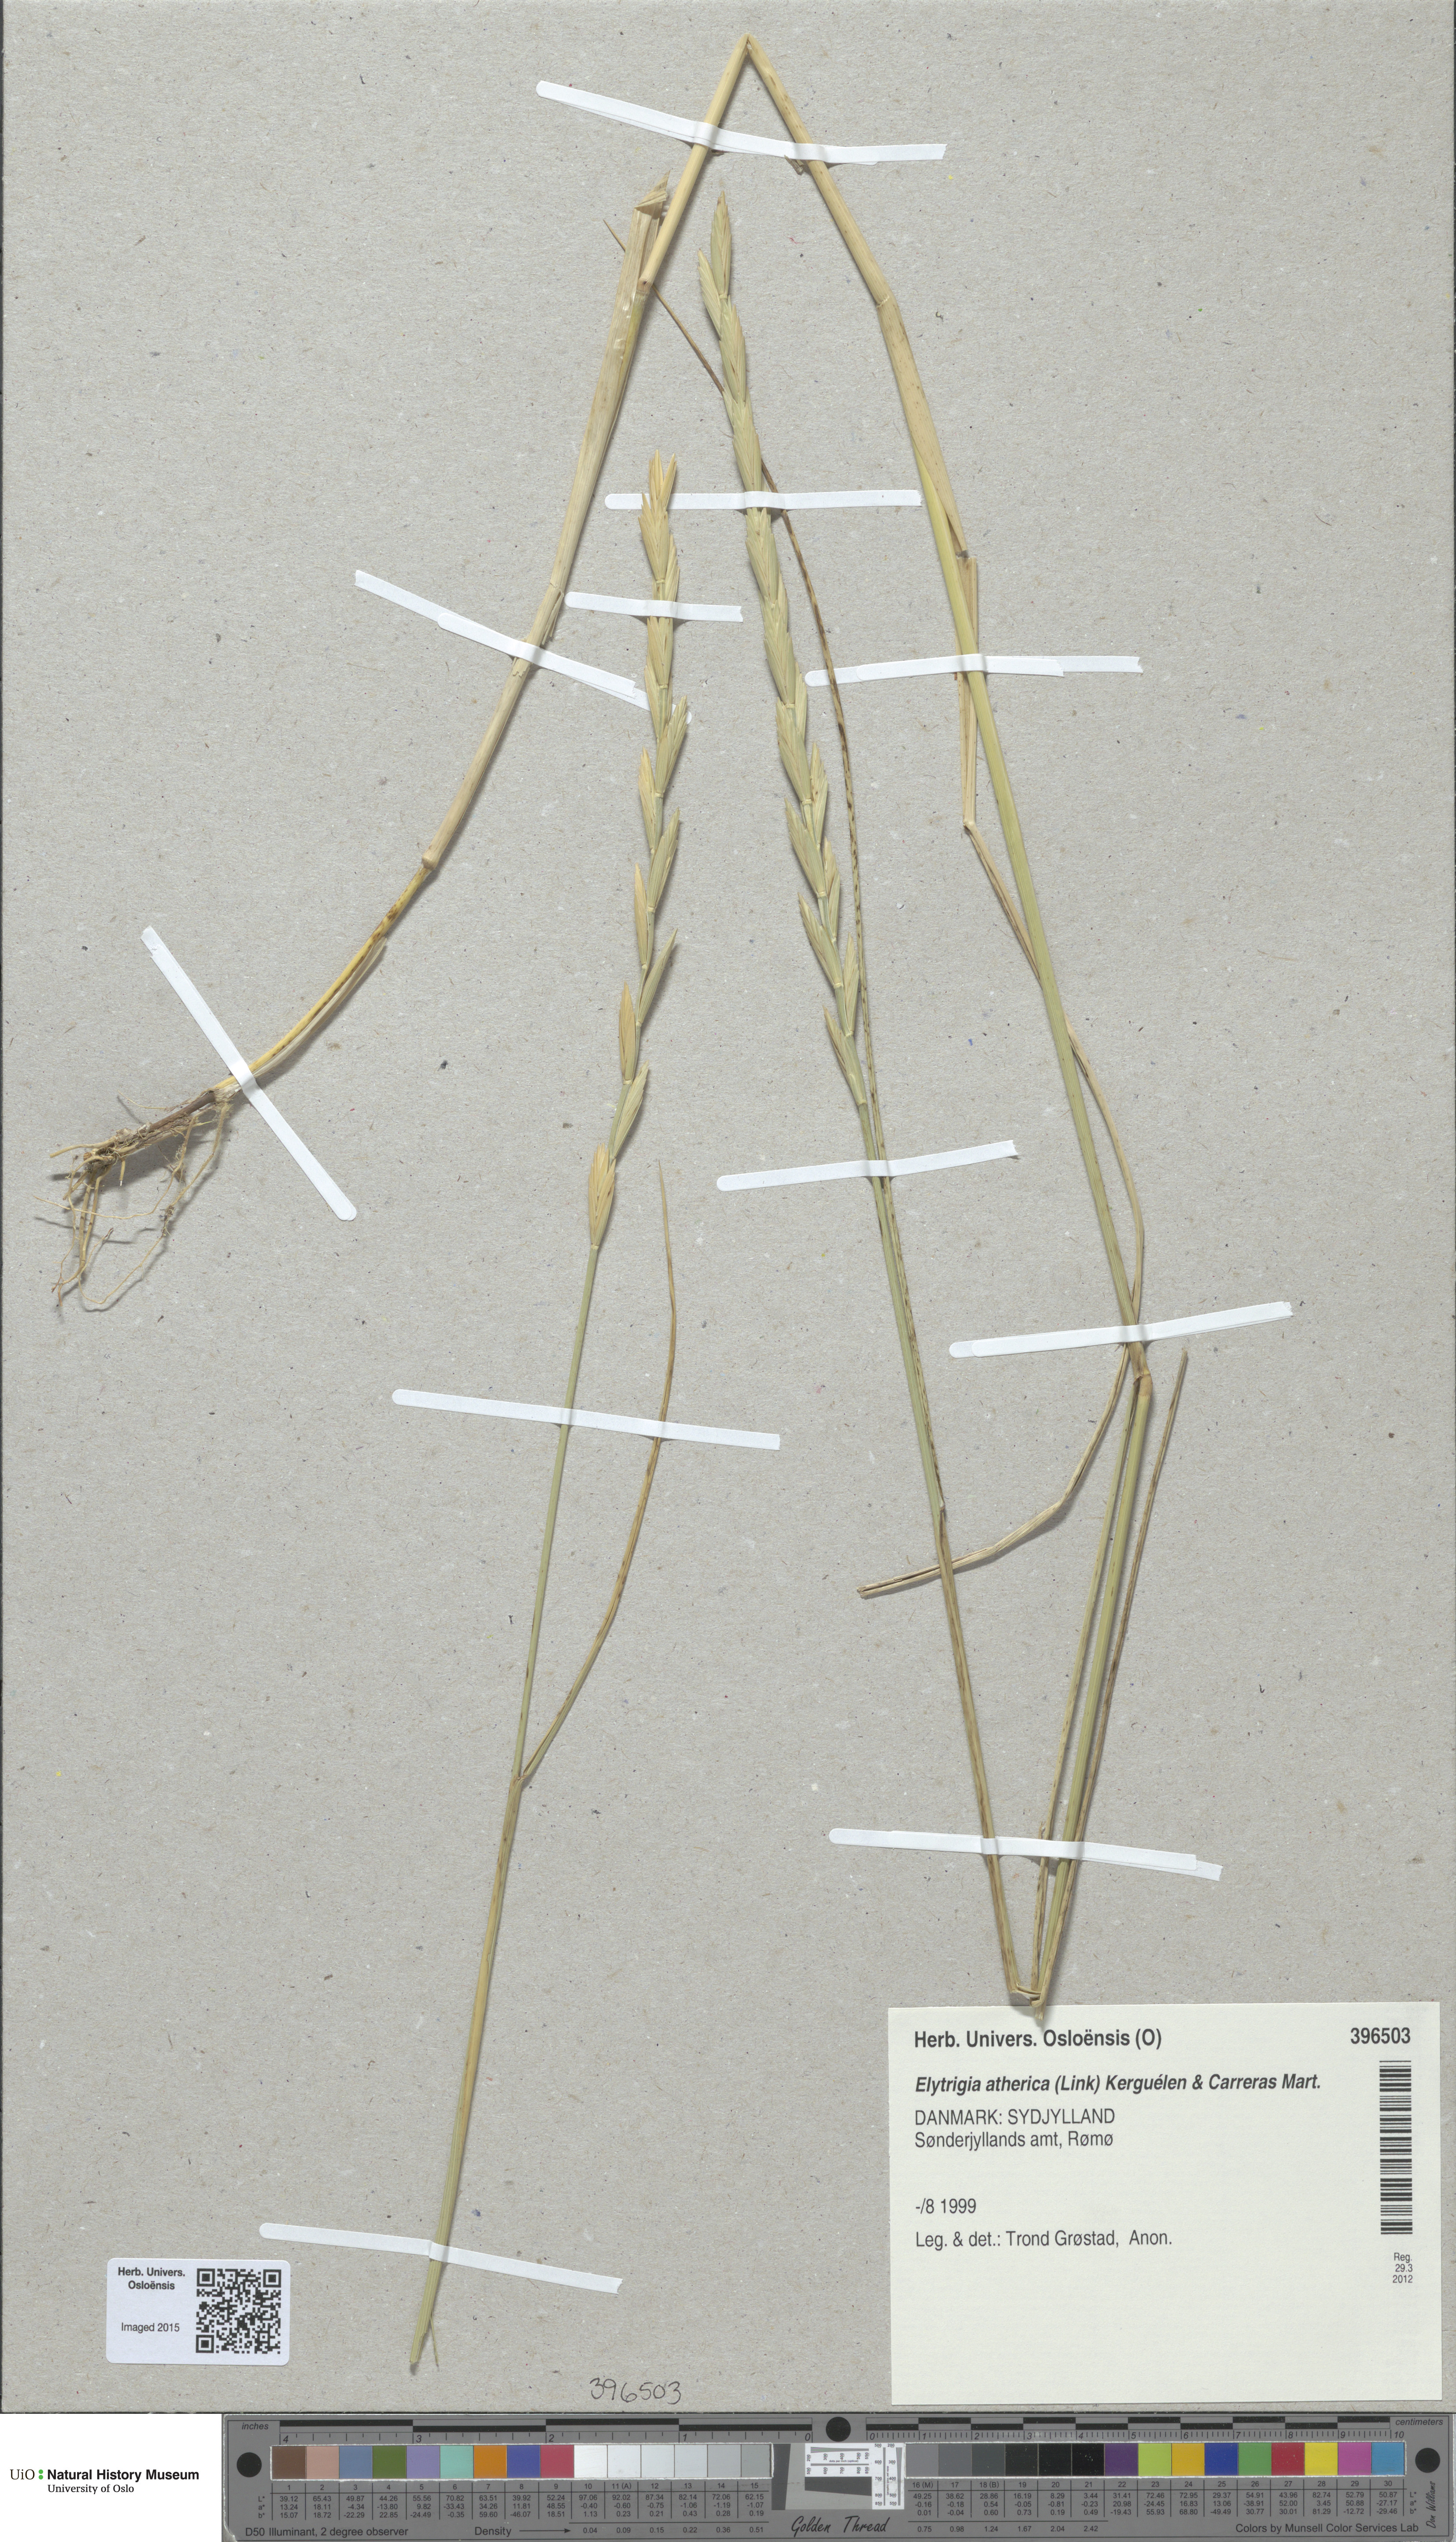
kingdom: Plantae
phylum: Tracheophyta
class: Liliopsida
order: Poales
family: Poaceae
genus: Elymus
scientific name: Elymus athericus
